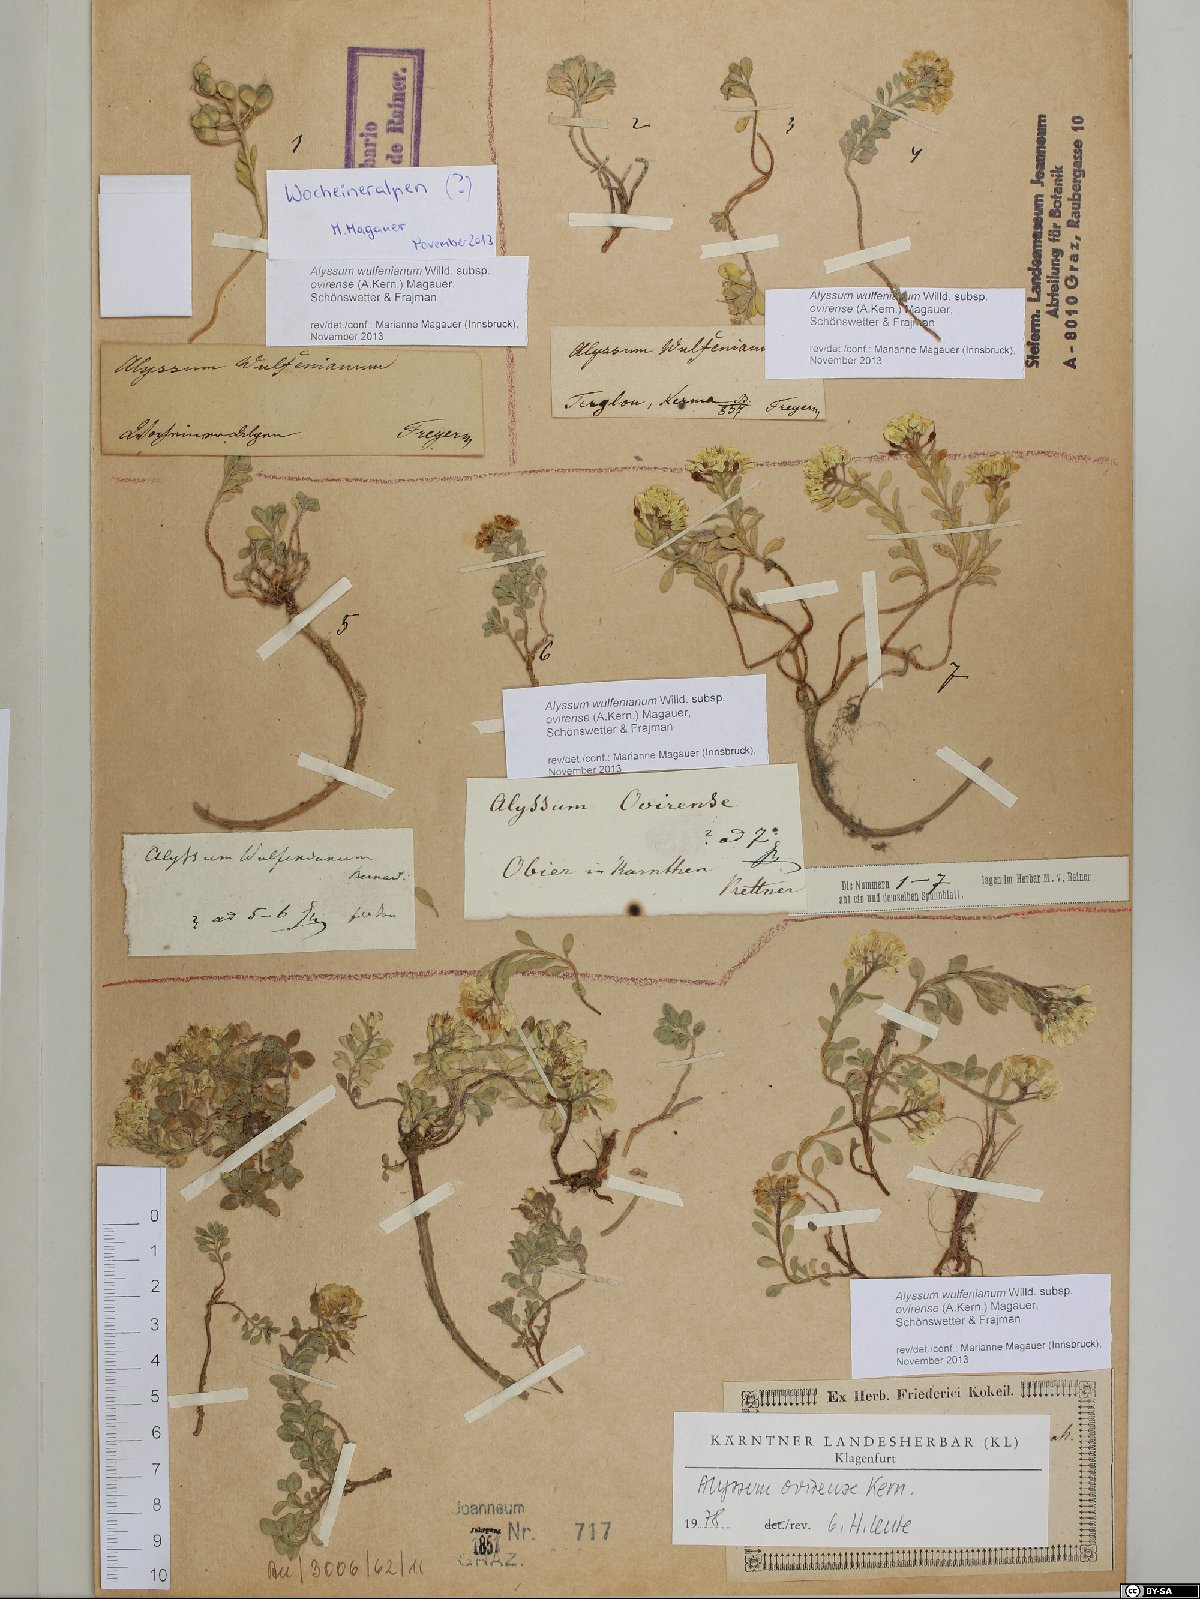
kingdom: Plantae
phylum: Tracheophyta
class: Magnoliopsida
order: Brassicales
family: Brassicaceae
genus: Alyssum
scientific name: Alyssum wulfenianum
